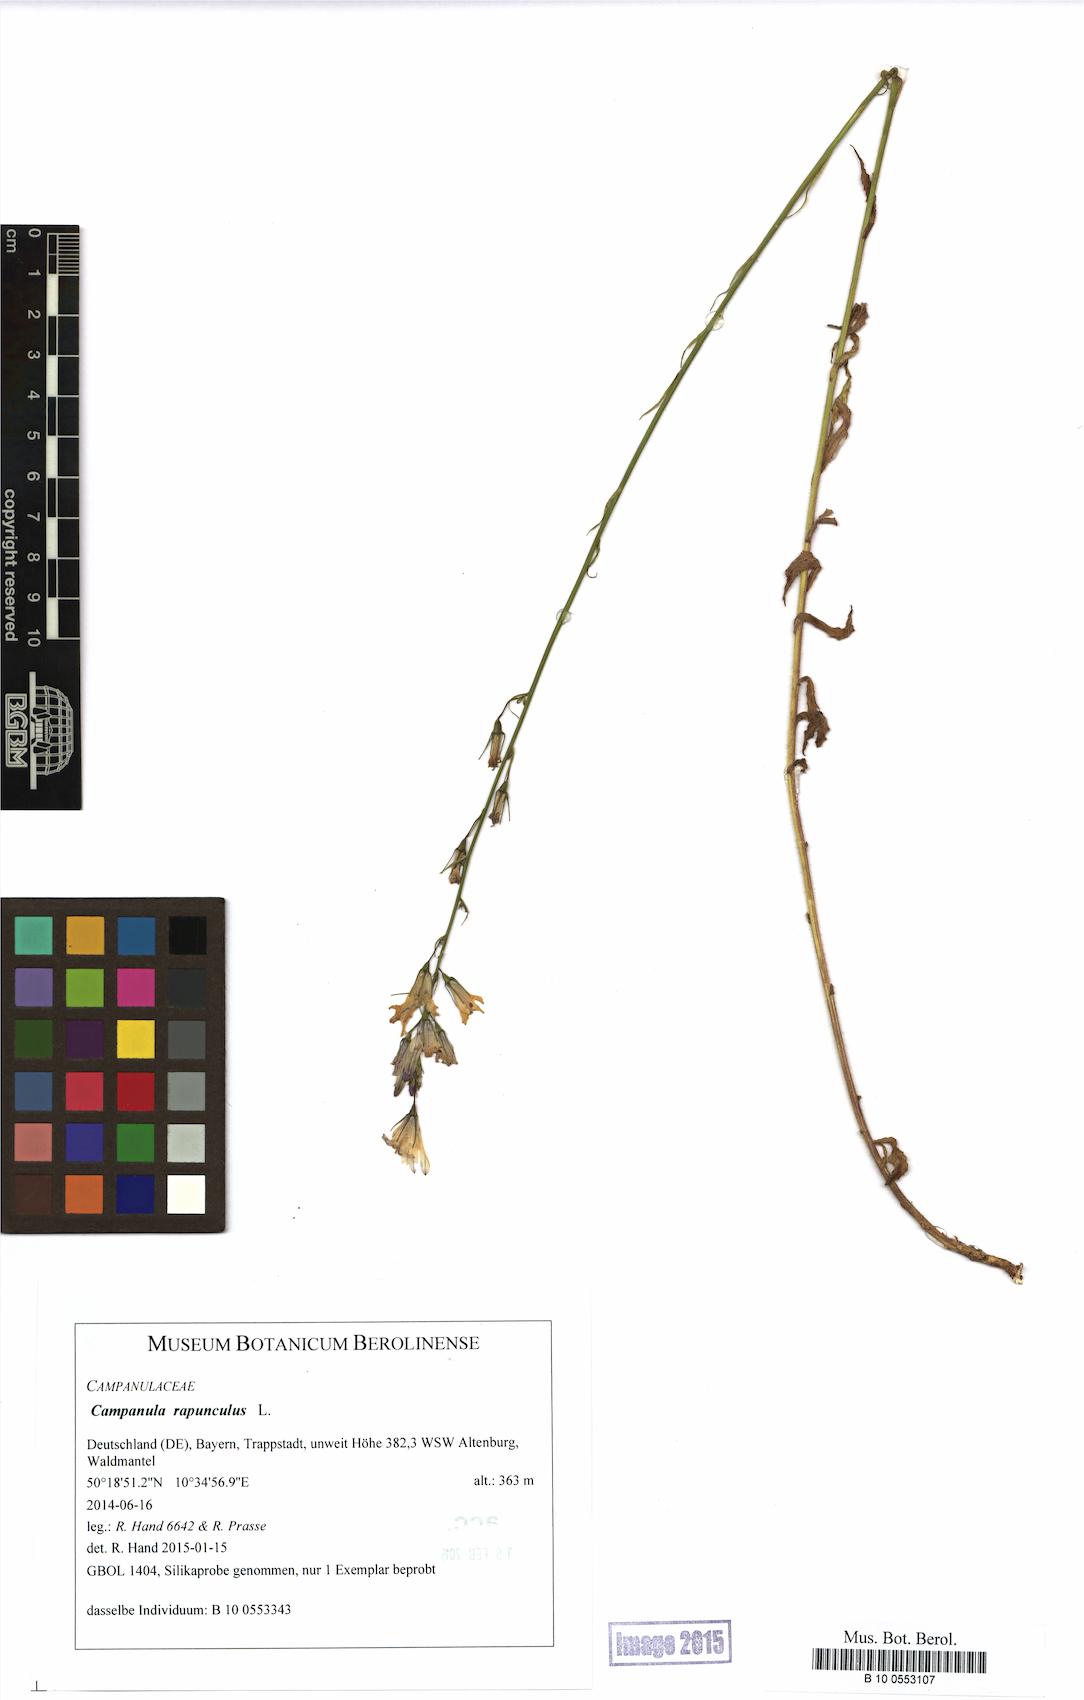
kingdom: Plantae
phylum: Tracheophyta
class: Magnoliopsida
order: Asterales
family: Campanulaceae
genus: Campanula
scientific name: Campanula rapunculus
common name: Rampion bellflower
